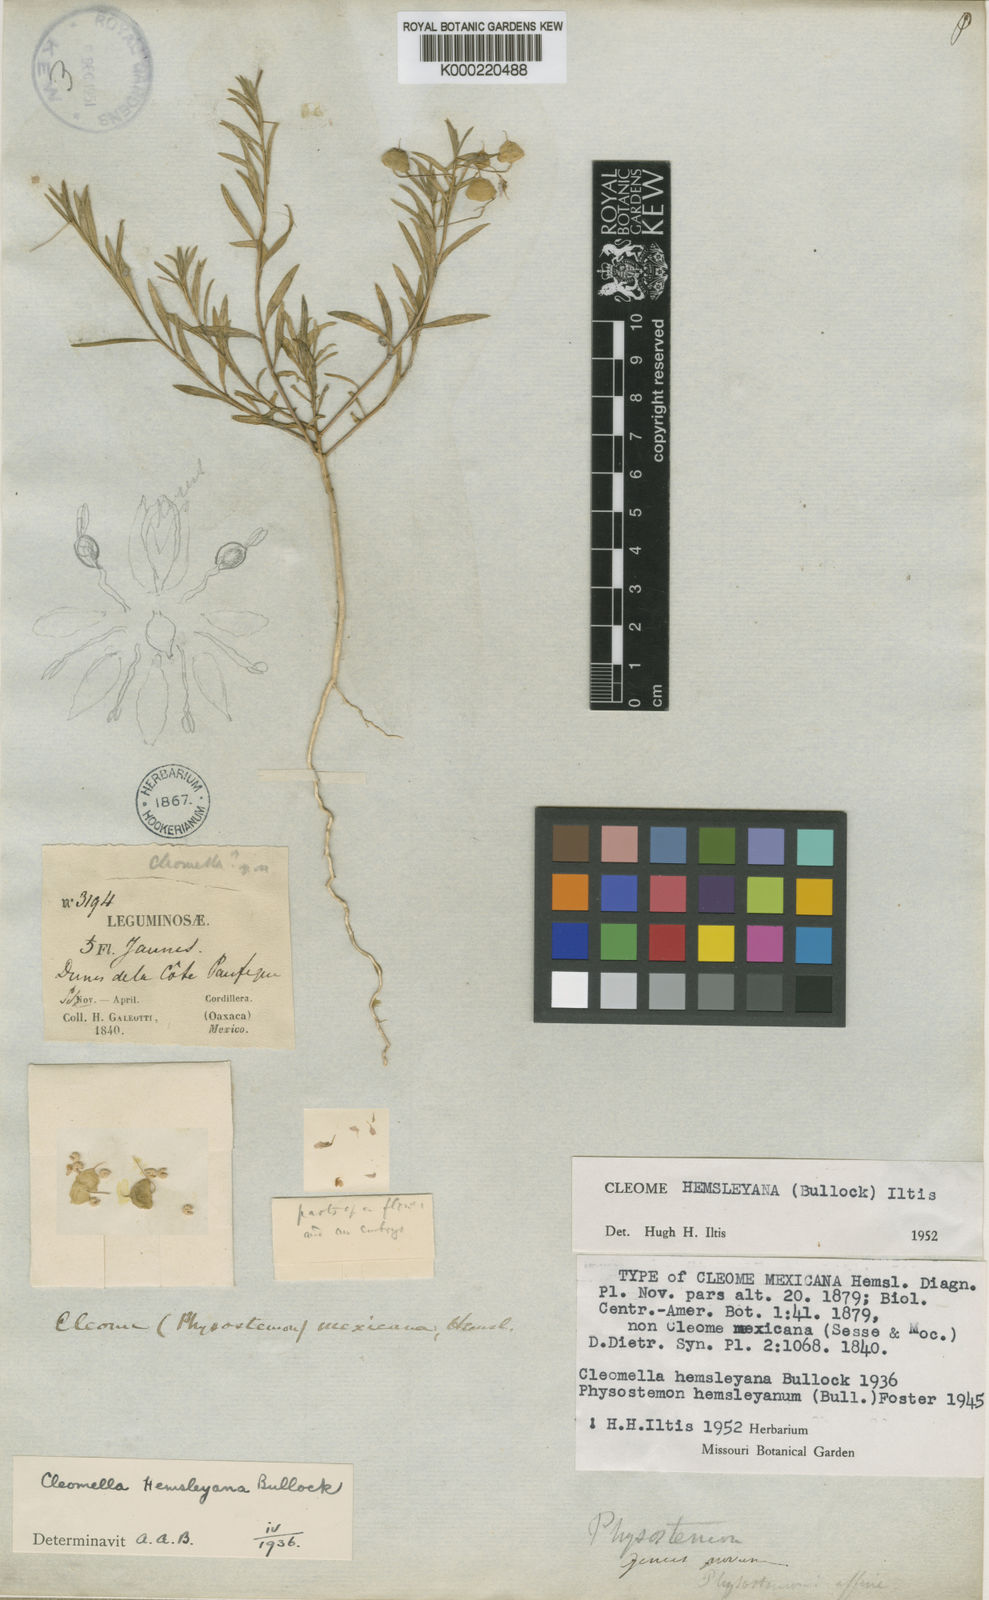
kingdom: Plantae
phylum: Tracheophyta
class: Magnoliopsida
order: Brassicales
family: Cleomaceae
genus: Physostemon
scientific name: Physostemon hemsleyanus
